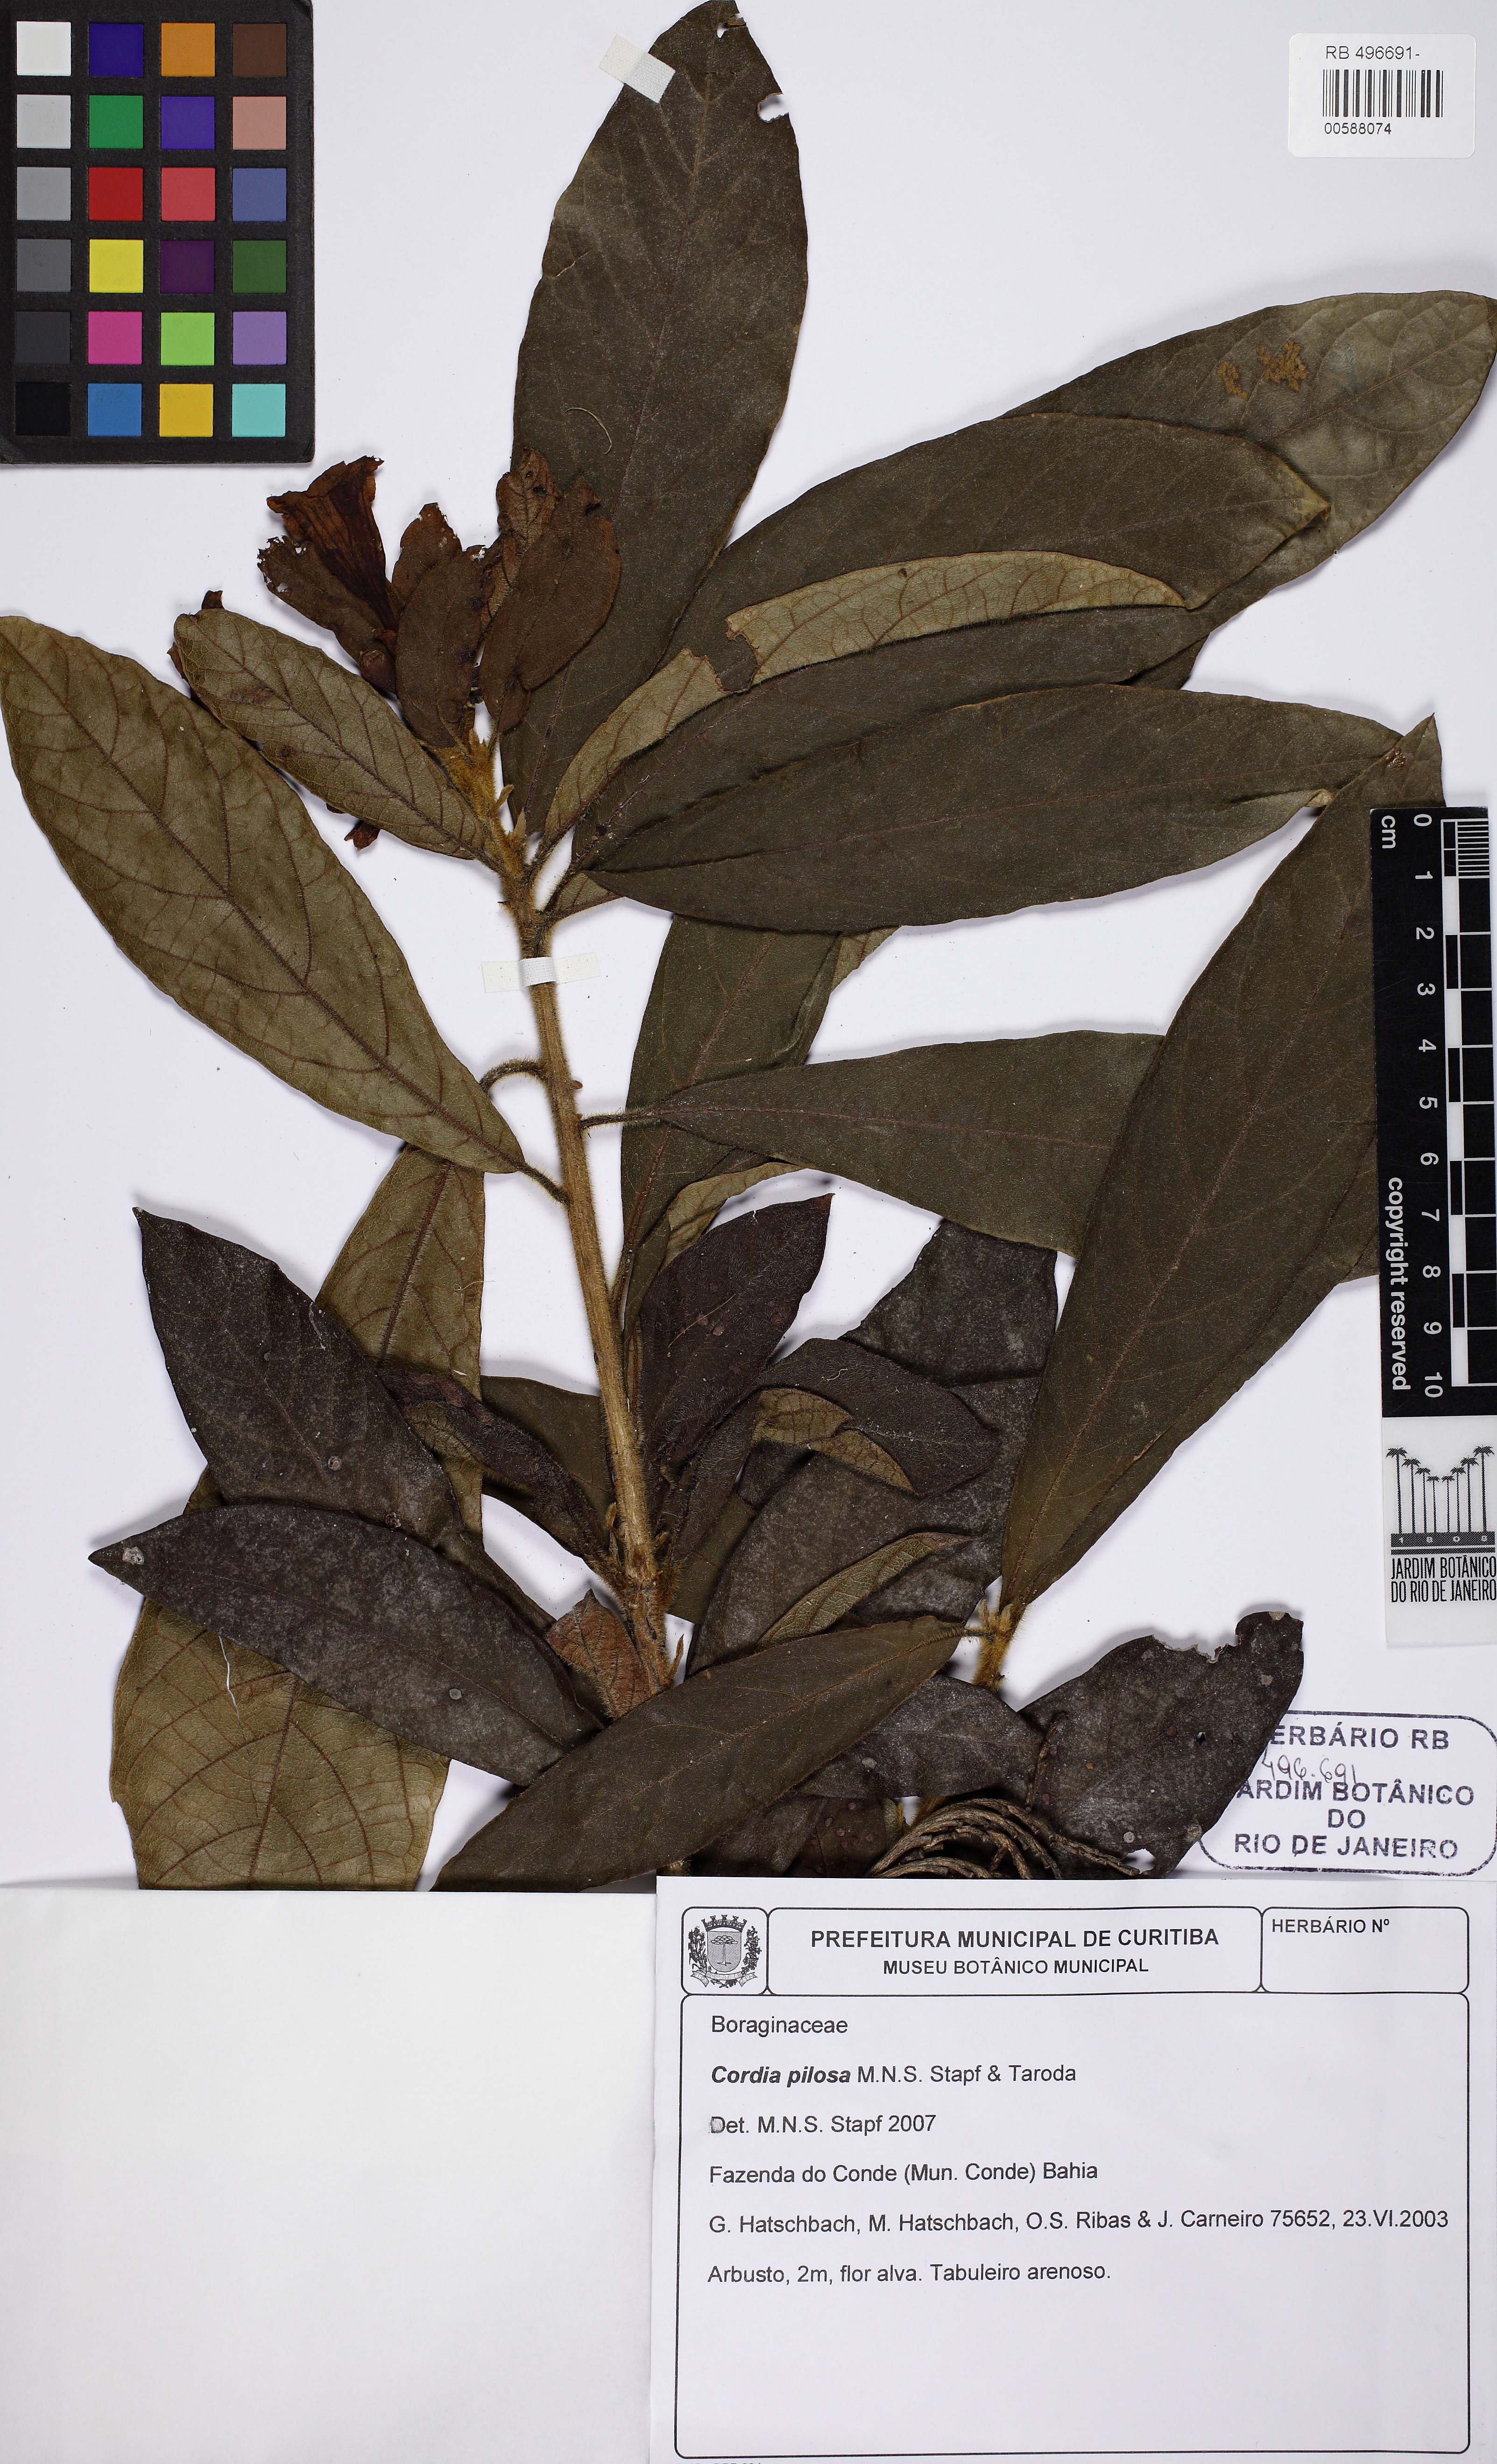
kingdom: Plantae
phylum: Tracheophyta
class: Magnoliopsida
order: Boraginales
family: Cordiaceae
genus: Cordia
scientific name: Cordia pilosa
